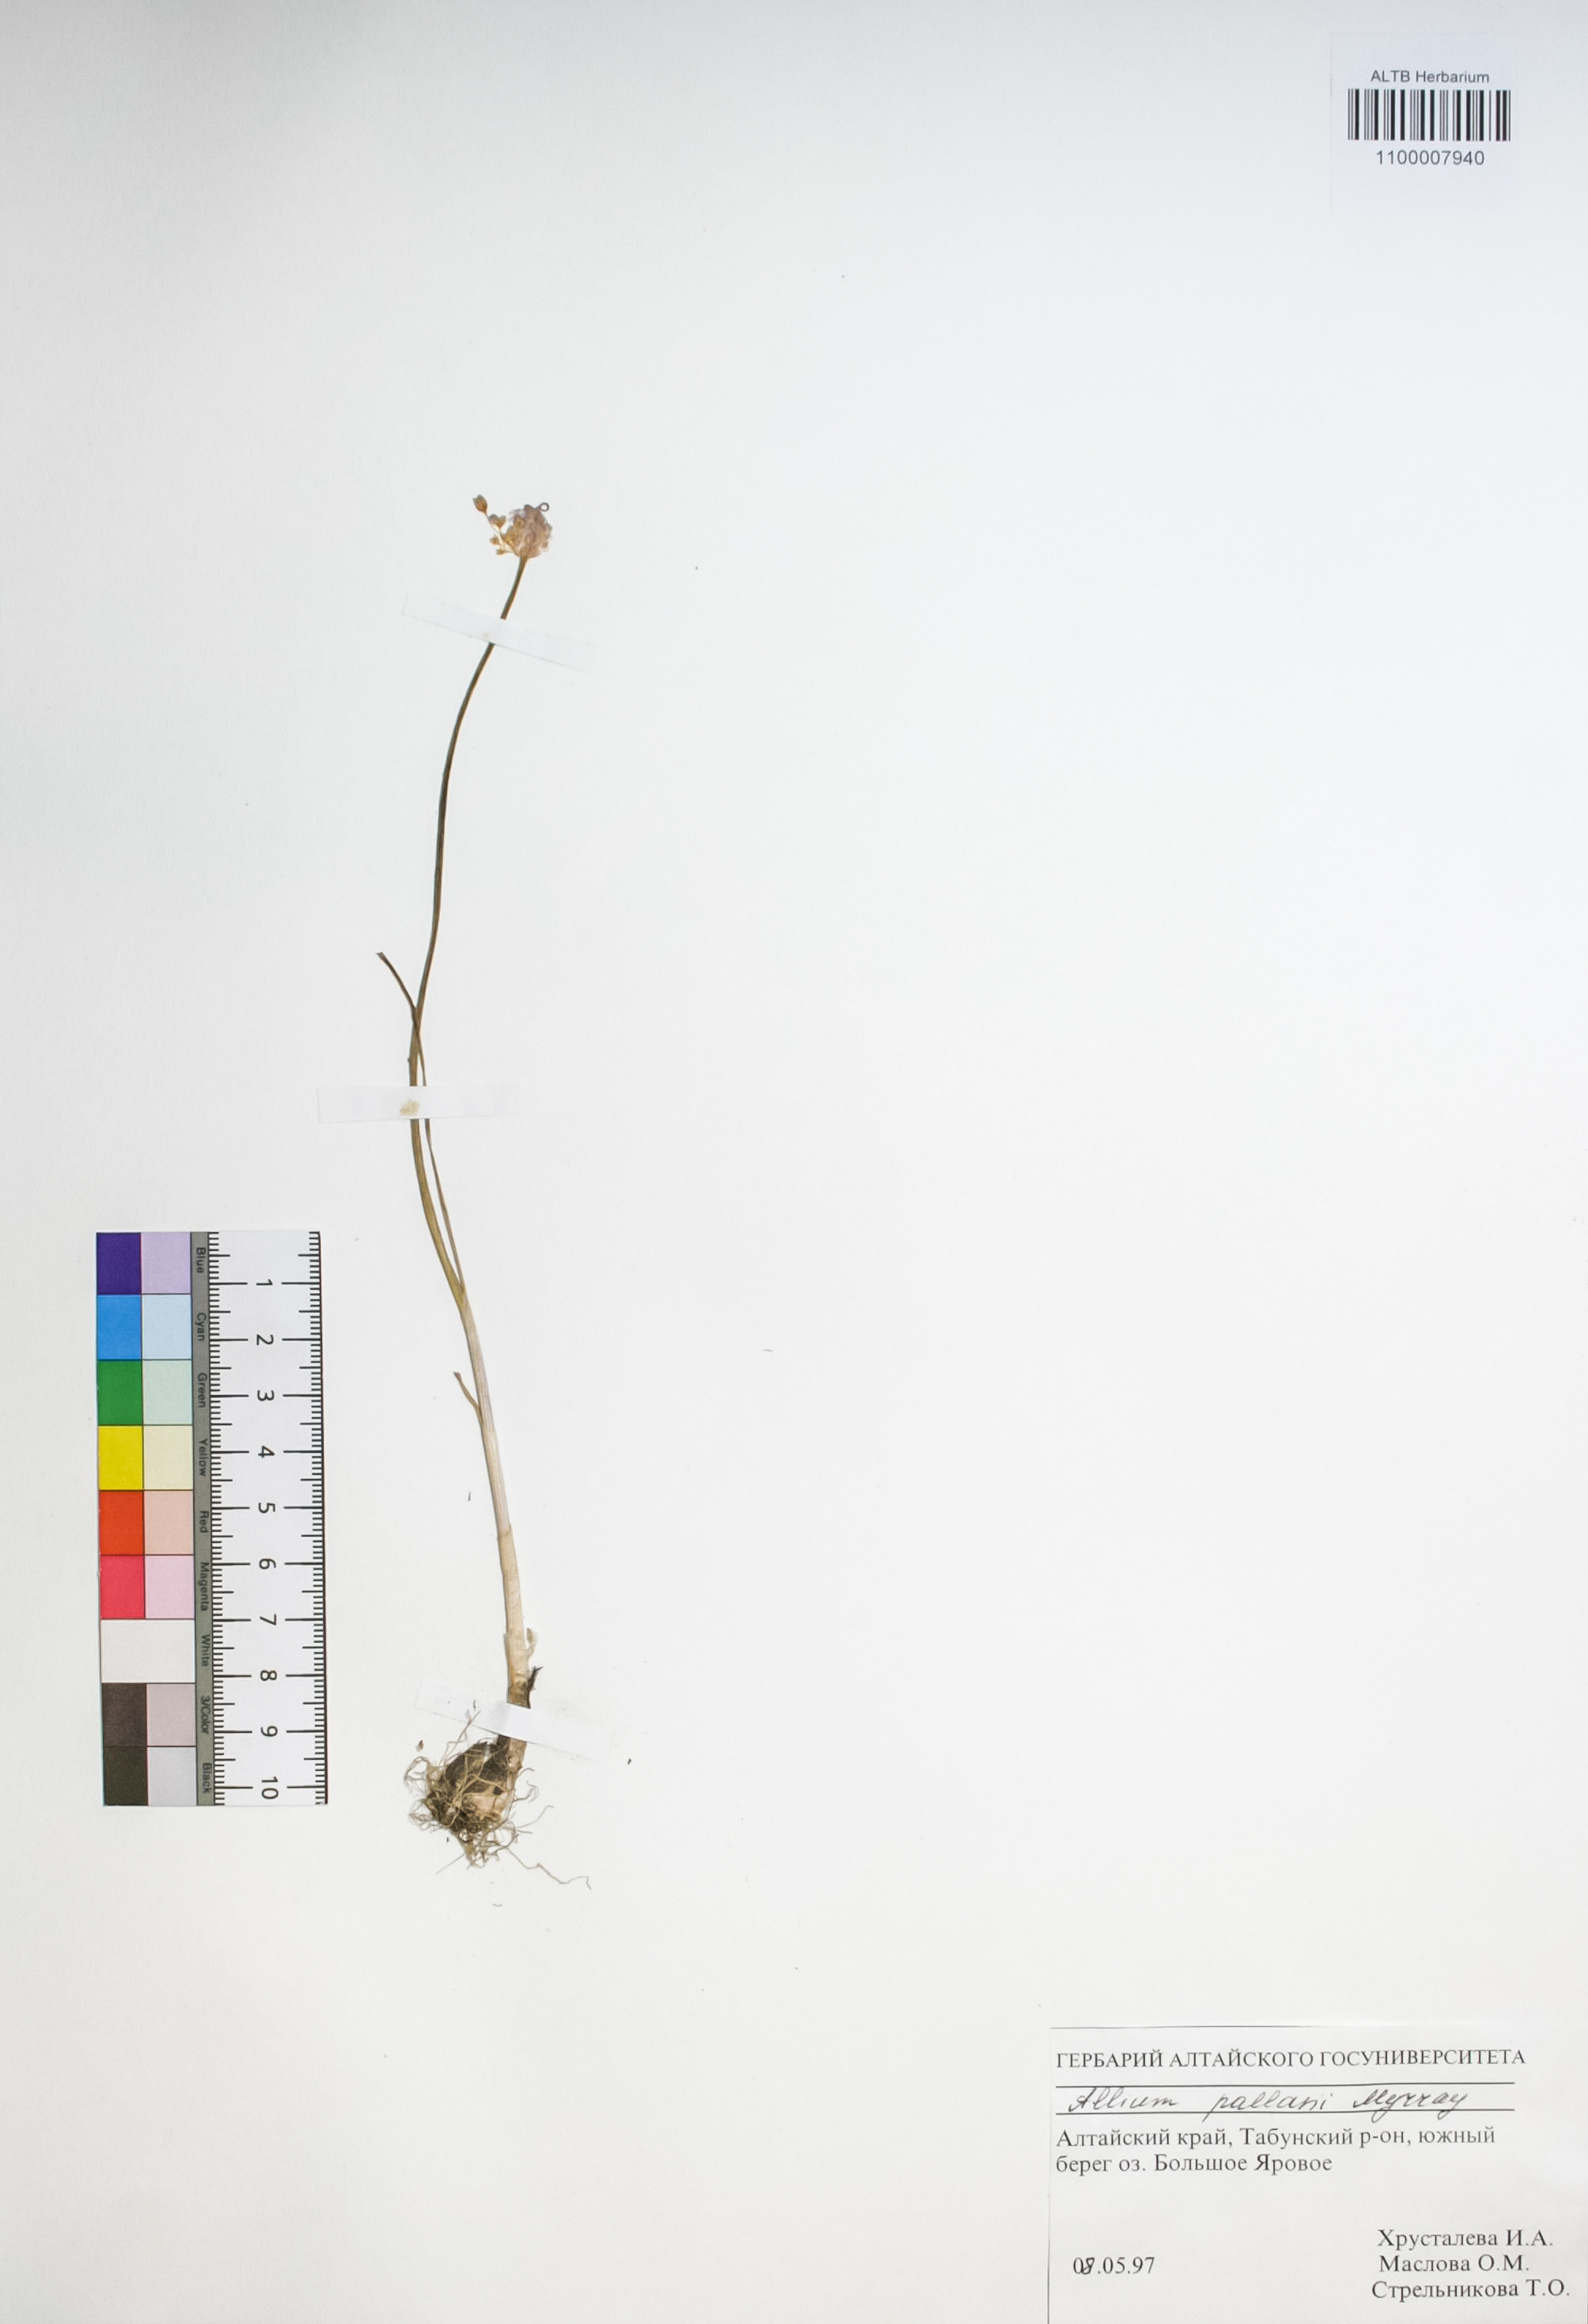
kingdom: Plantae
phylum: Tracheophyta
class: Liliopsida
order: Asparagales
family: Amaryllidaceae
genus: Allium
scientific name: Allium pallasii
